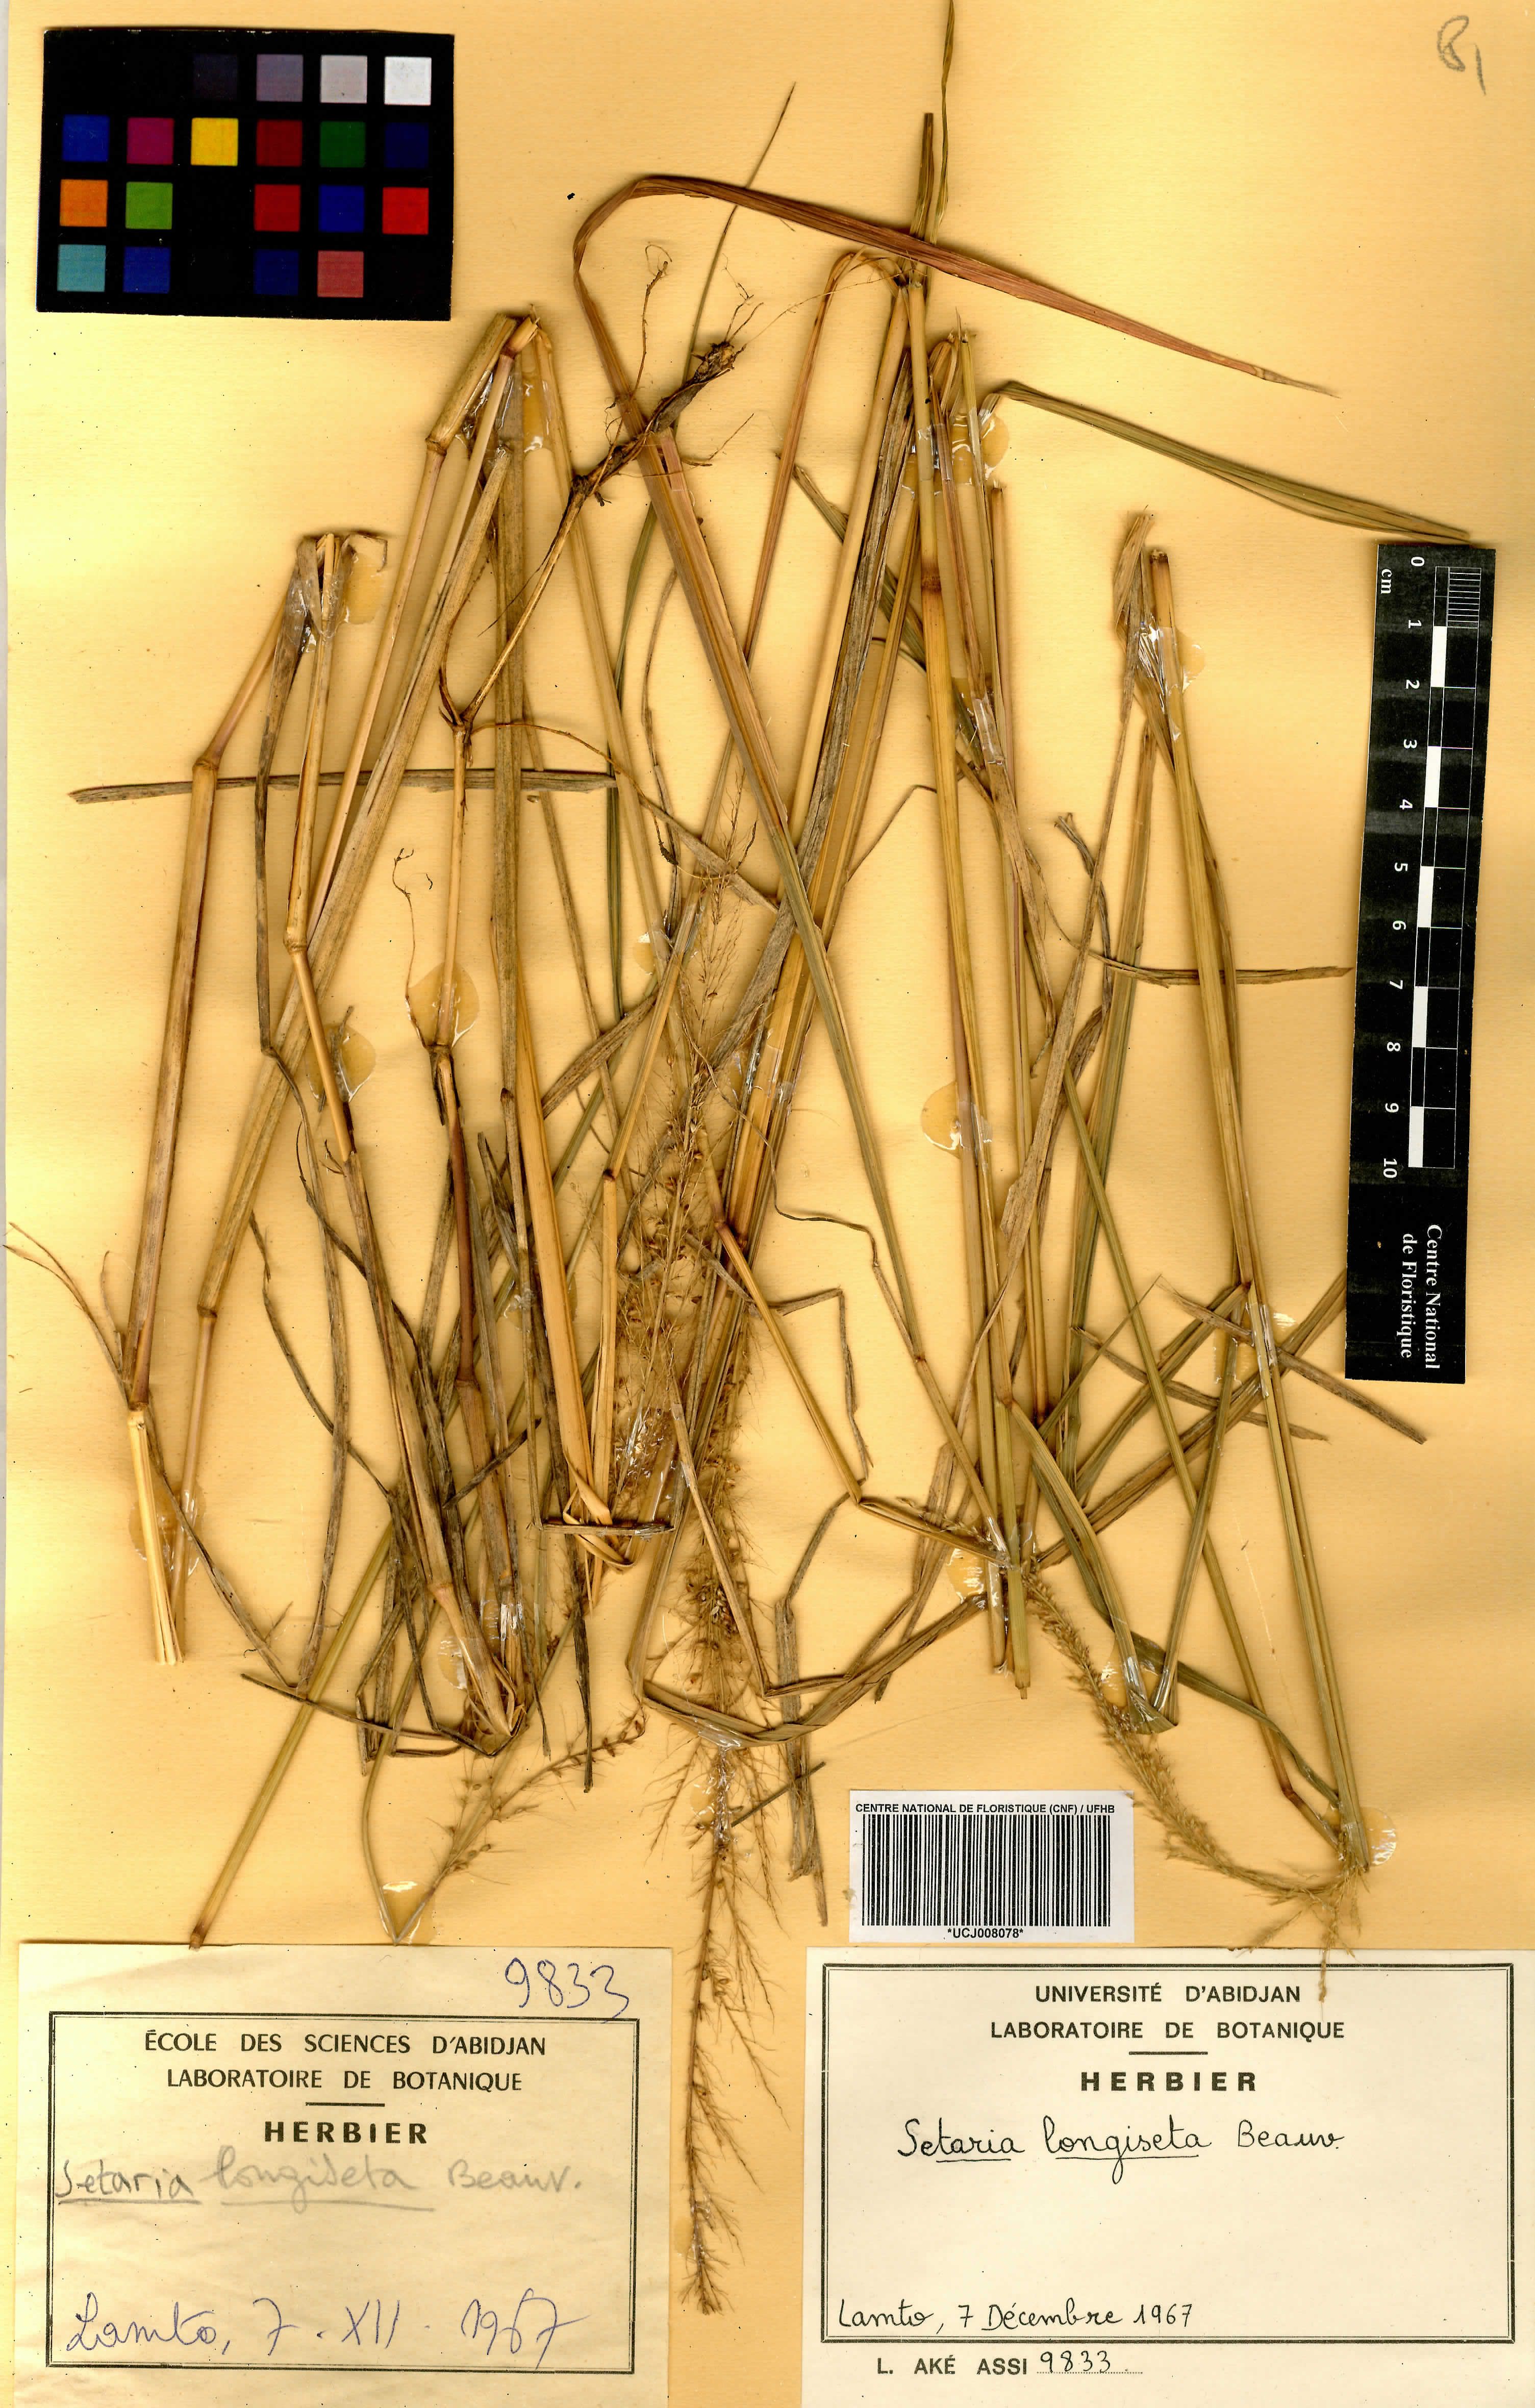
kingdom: Plantae
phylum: Tracheophyta
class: Liliopsida
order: Poales
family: Poaceae
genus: Setaria
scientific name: Setaria longiseta
